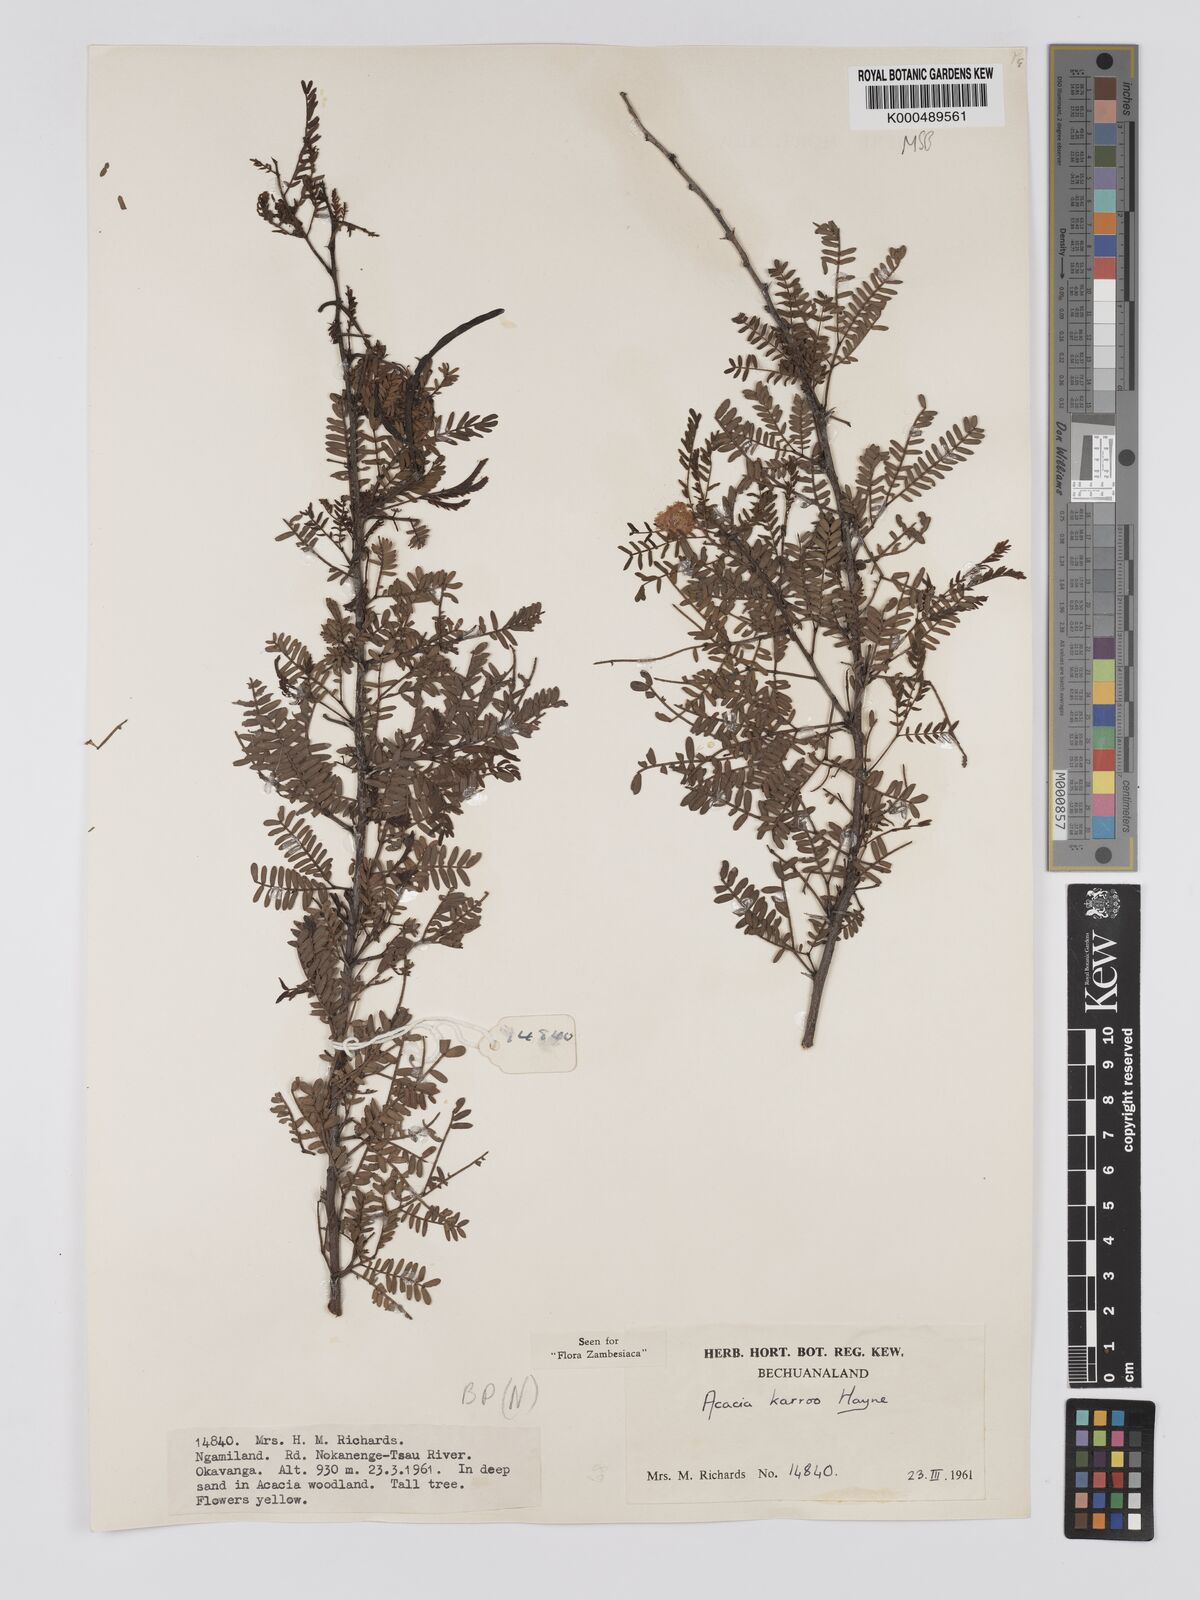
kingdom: Plantae
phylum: Tracheophyta
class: Magnoliopsida
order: Fabales
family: Fabaceae
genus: Vachellia
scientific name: Vachellia karroo
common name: Sweet thorn
